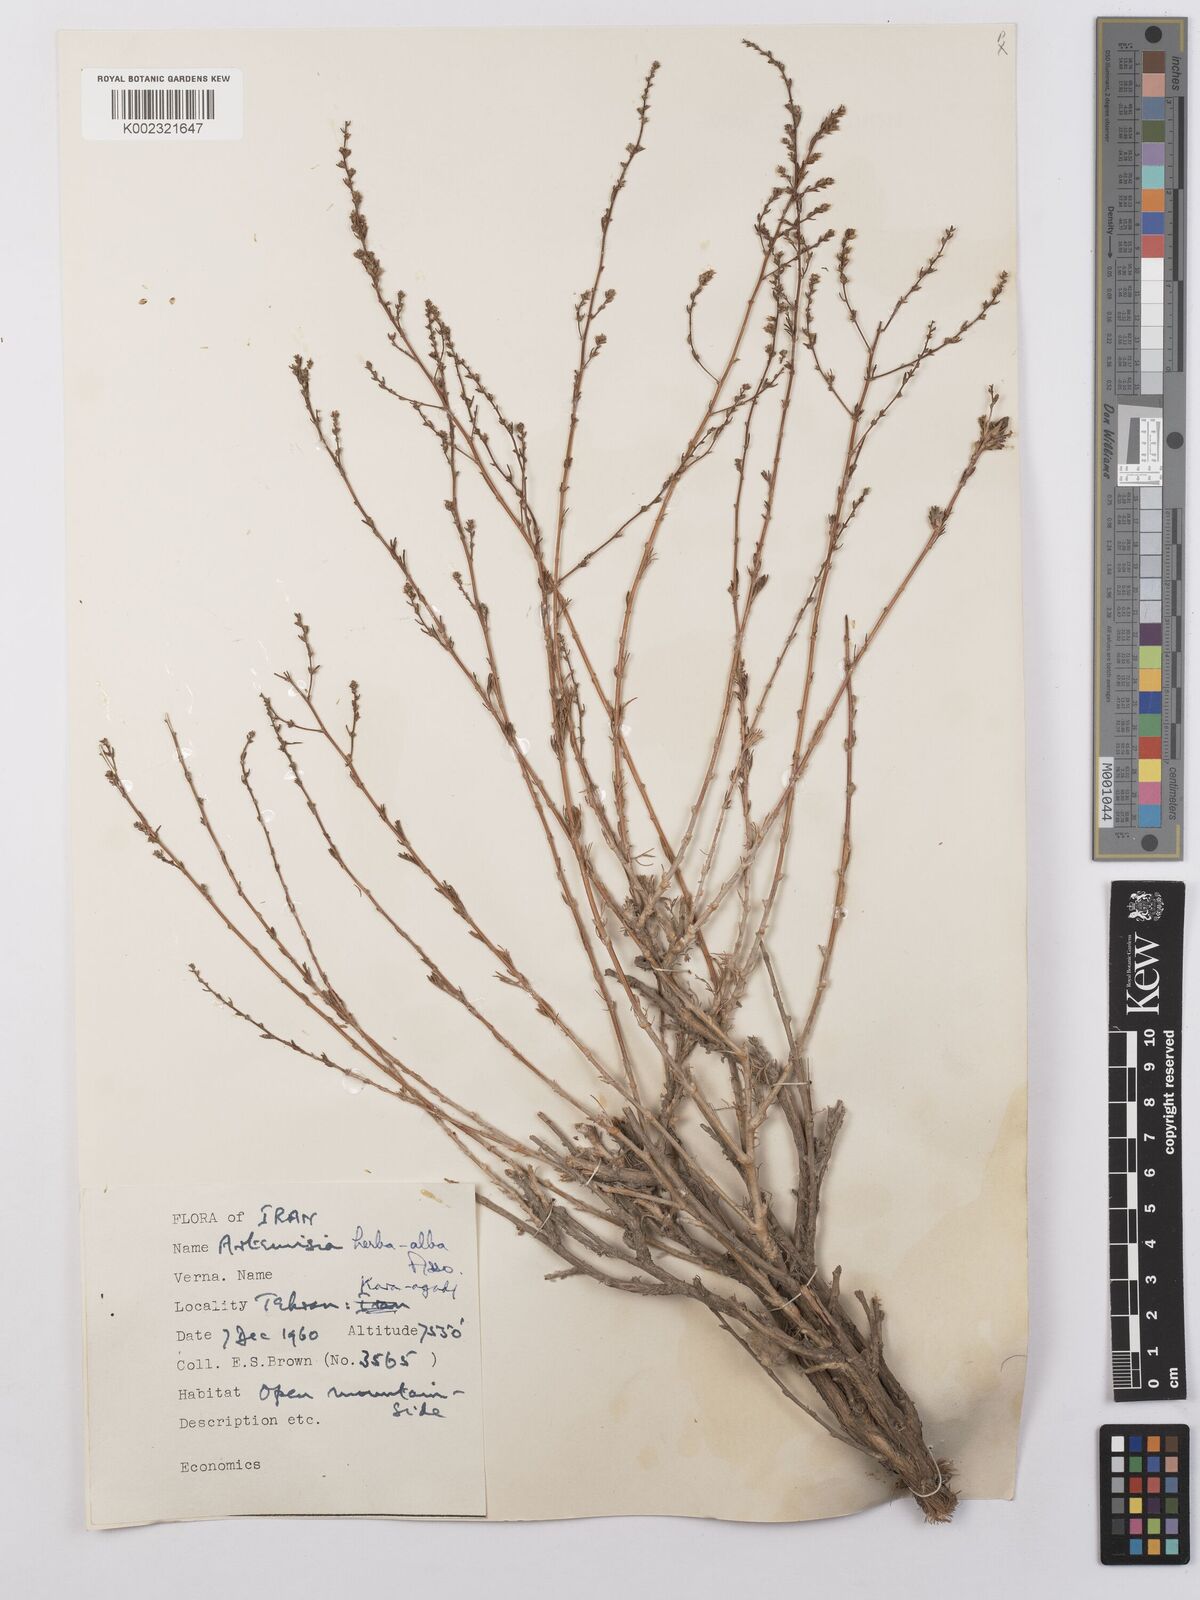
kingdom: Plantae
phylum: Tracheophyta
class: Magnoliopsida
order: Asterales
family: Asteraceae
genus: Artemisia
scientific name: Artemisia herba-alba
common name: White wormwood
